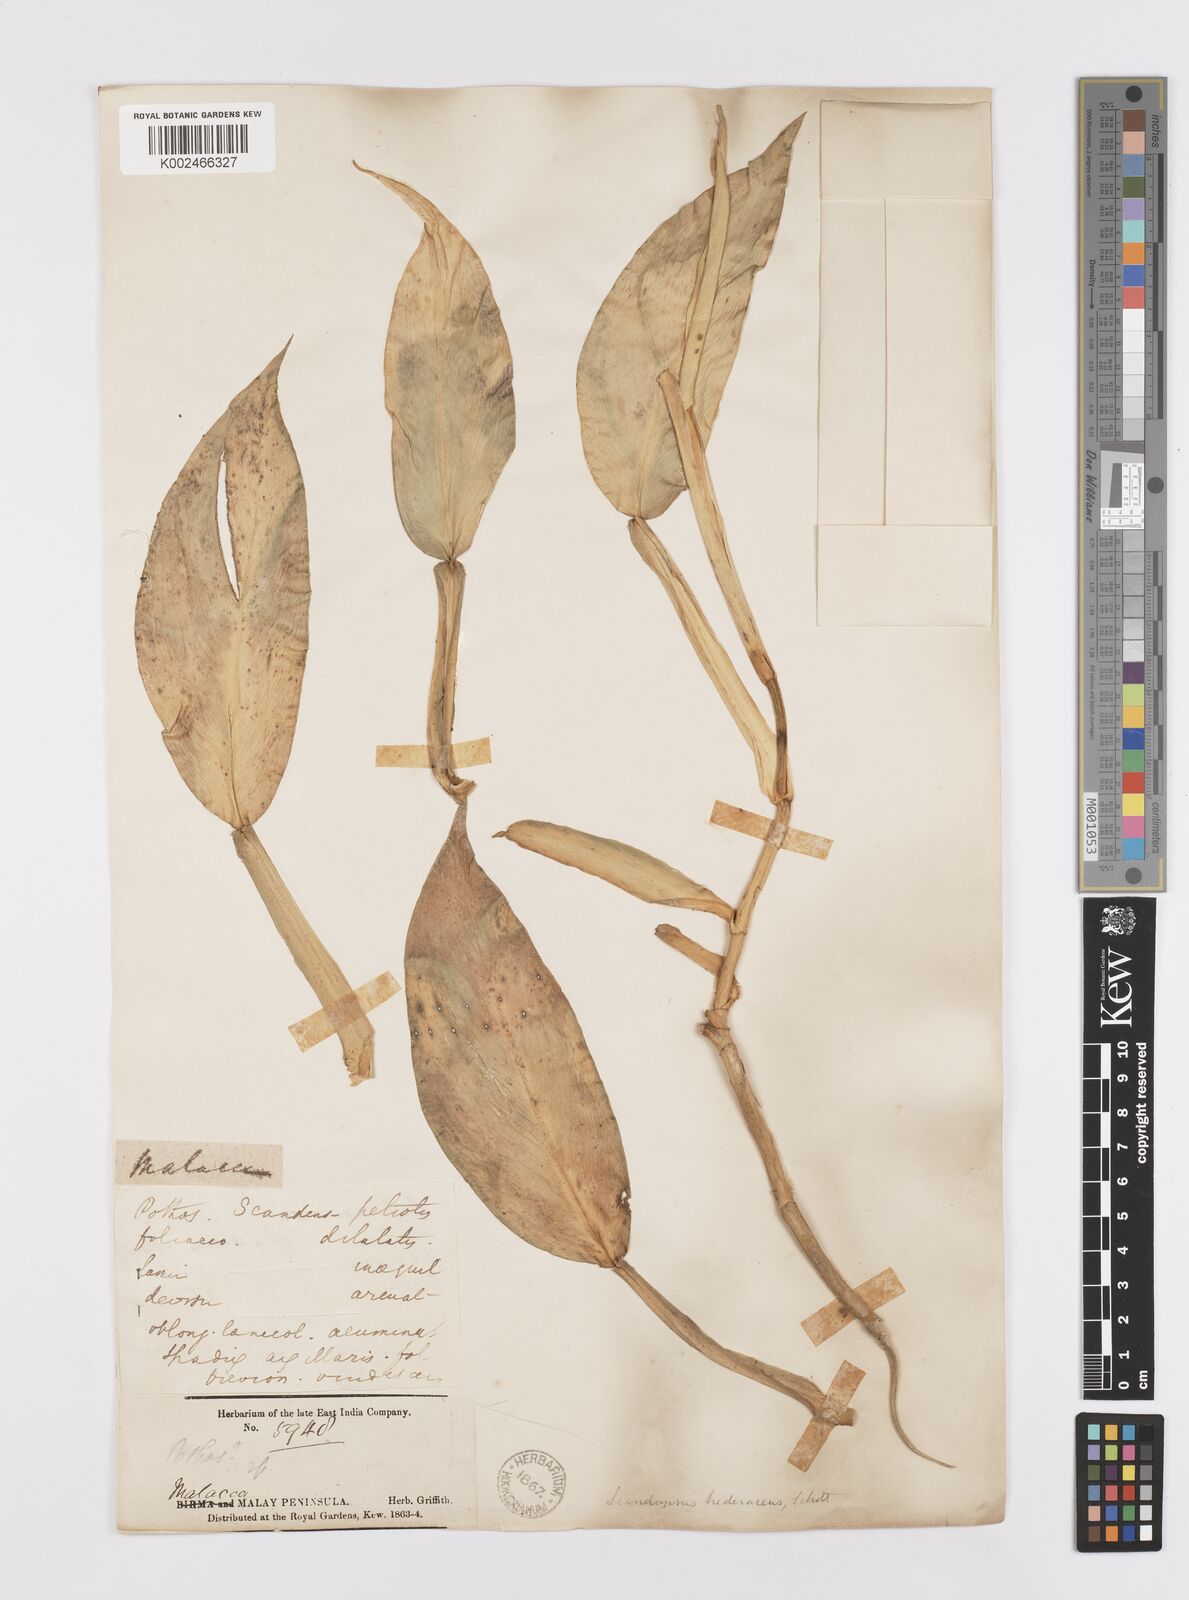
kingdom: Plantae
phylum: Tracheophyta
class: Liliopsida
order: Alismatales
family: Araceae
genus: Scindapsus
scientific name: Scindapsus hederaceus
